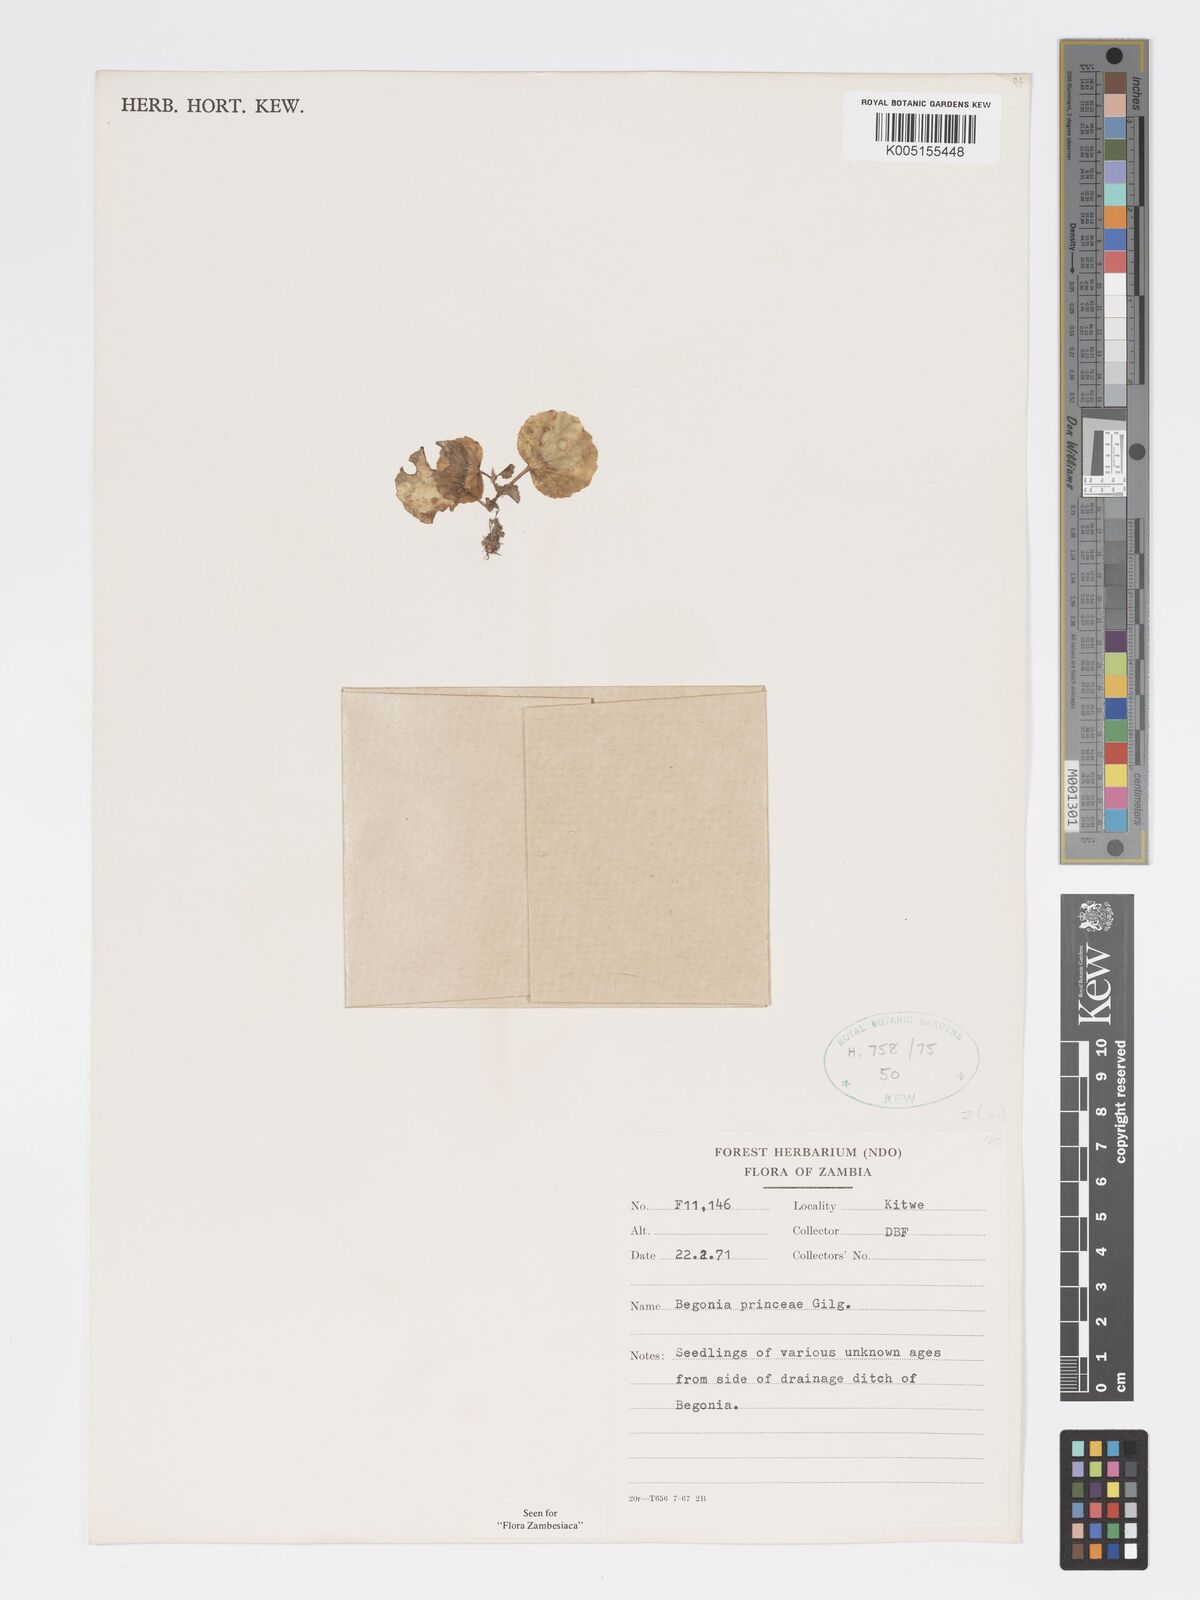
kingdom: Plantae
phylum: Tracheophyta
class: Magnoliopsida
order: Cucurbitales
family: Begoniaceae
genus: Begonia
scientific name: Begonia princeae
